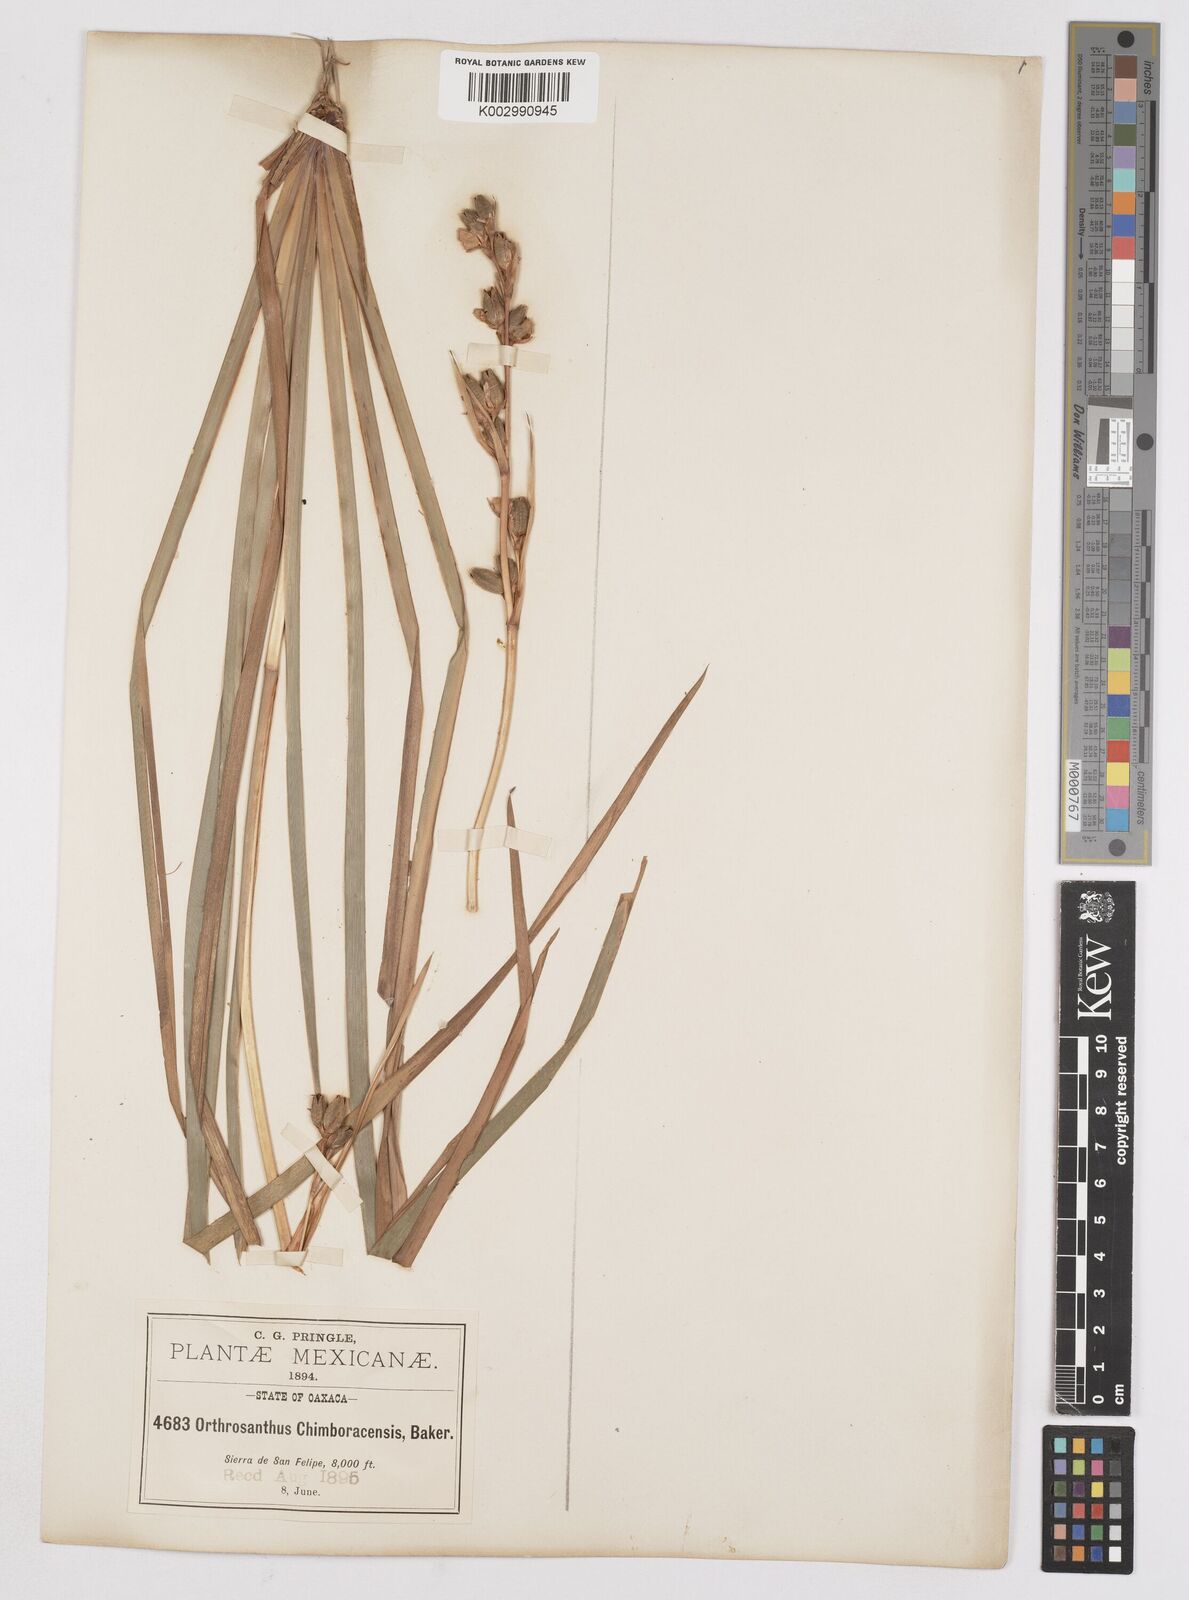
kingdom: Plantae
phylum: Tracheophyta
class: Liliopsida
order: Asparagales
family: Iridaceae
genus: Orthrosanthus
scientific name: Orthrosanthus chimboracensis
